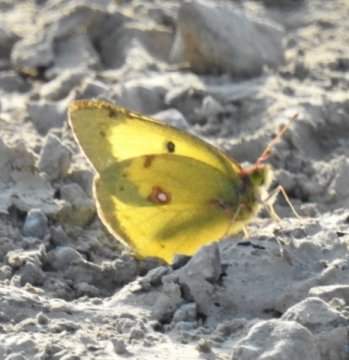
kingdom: Animalia
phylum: Arthropoda
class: Insecta
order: Lepidoptera
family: Pieridae
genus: Colias
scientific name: Colias philodice
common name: Clouded Sulphur
